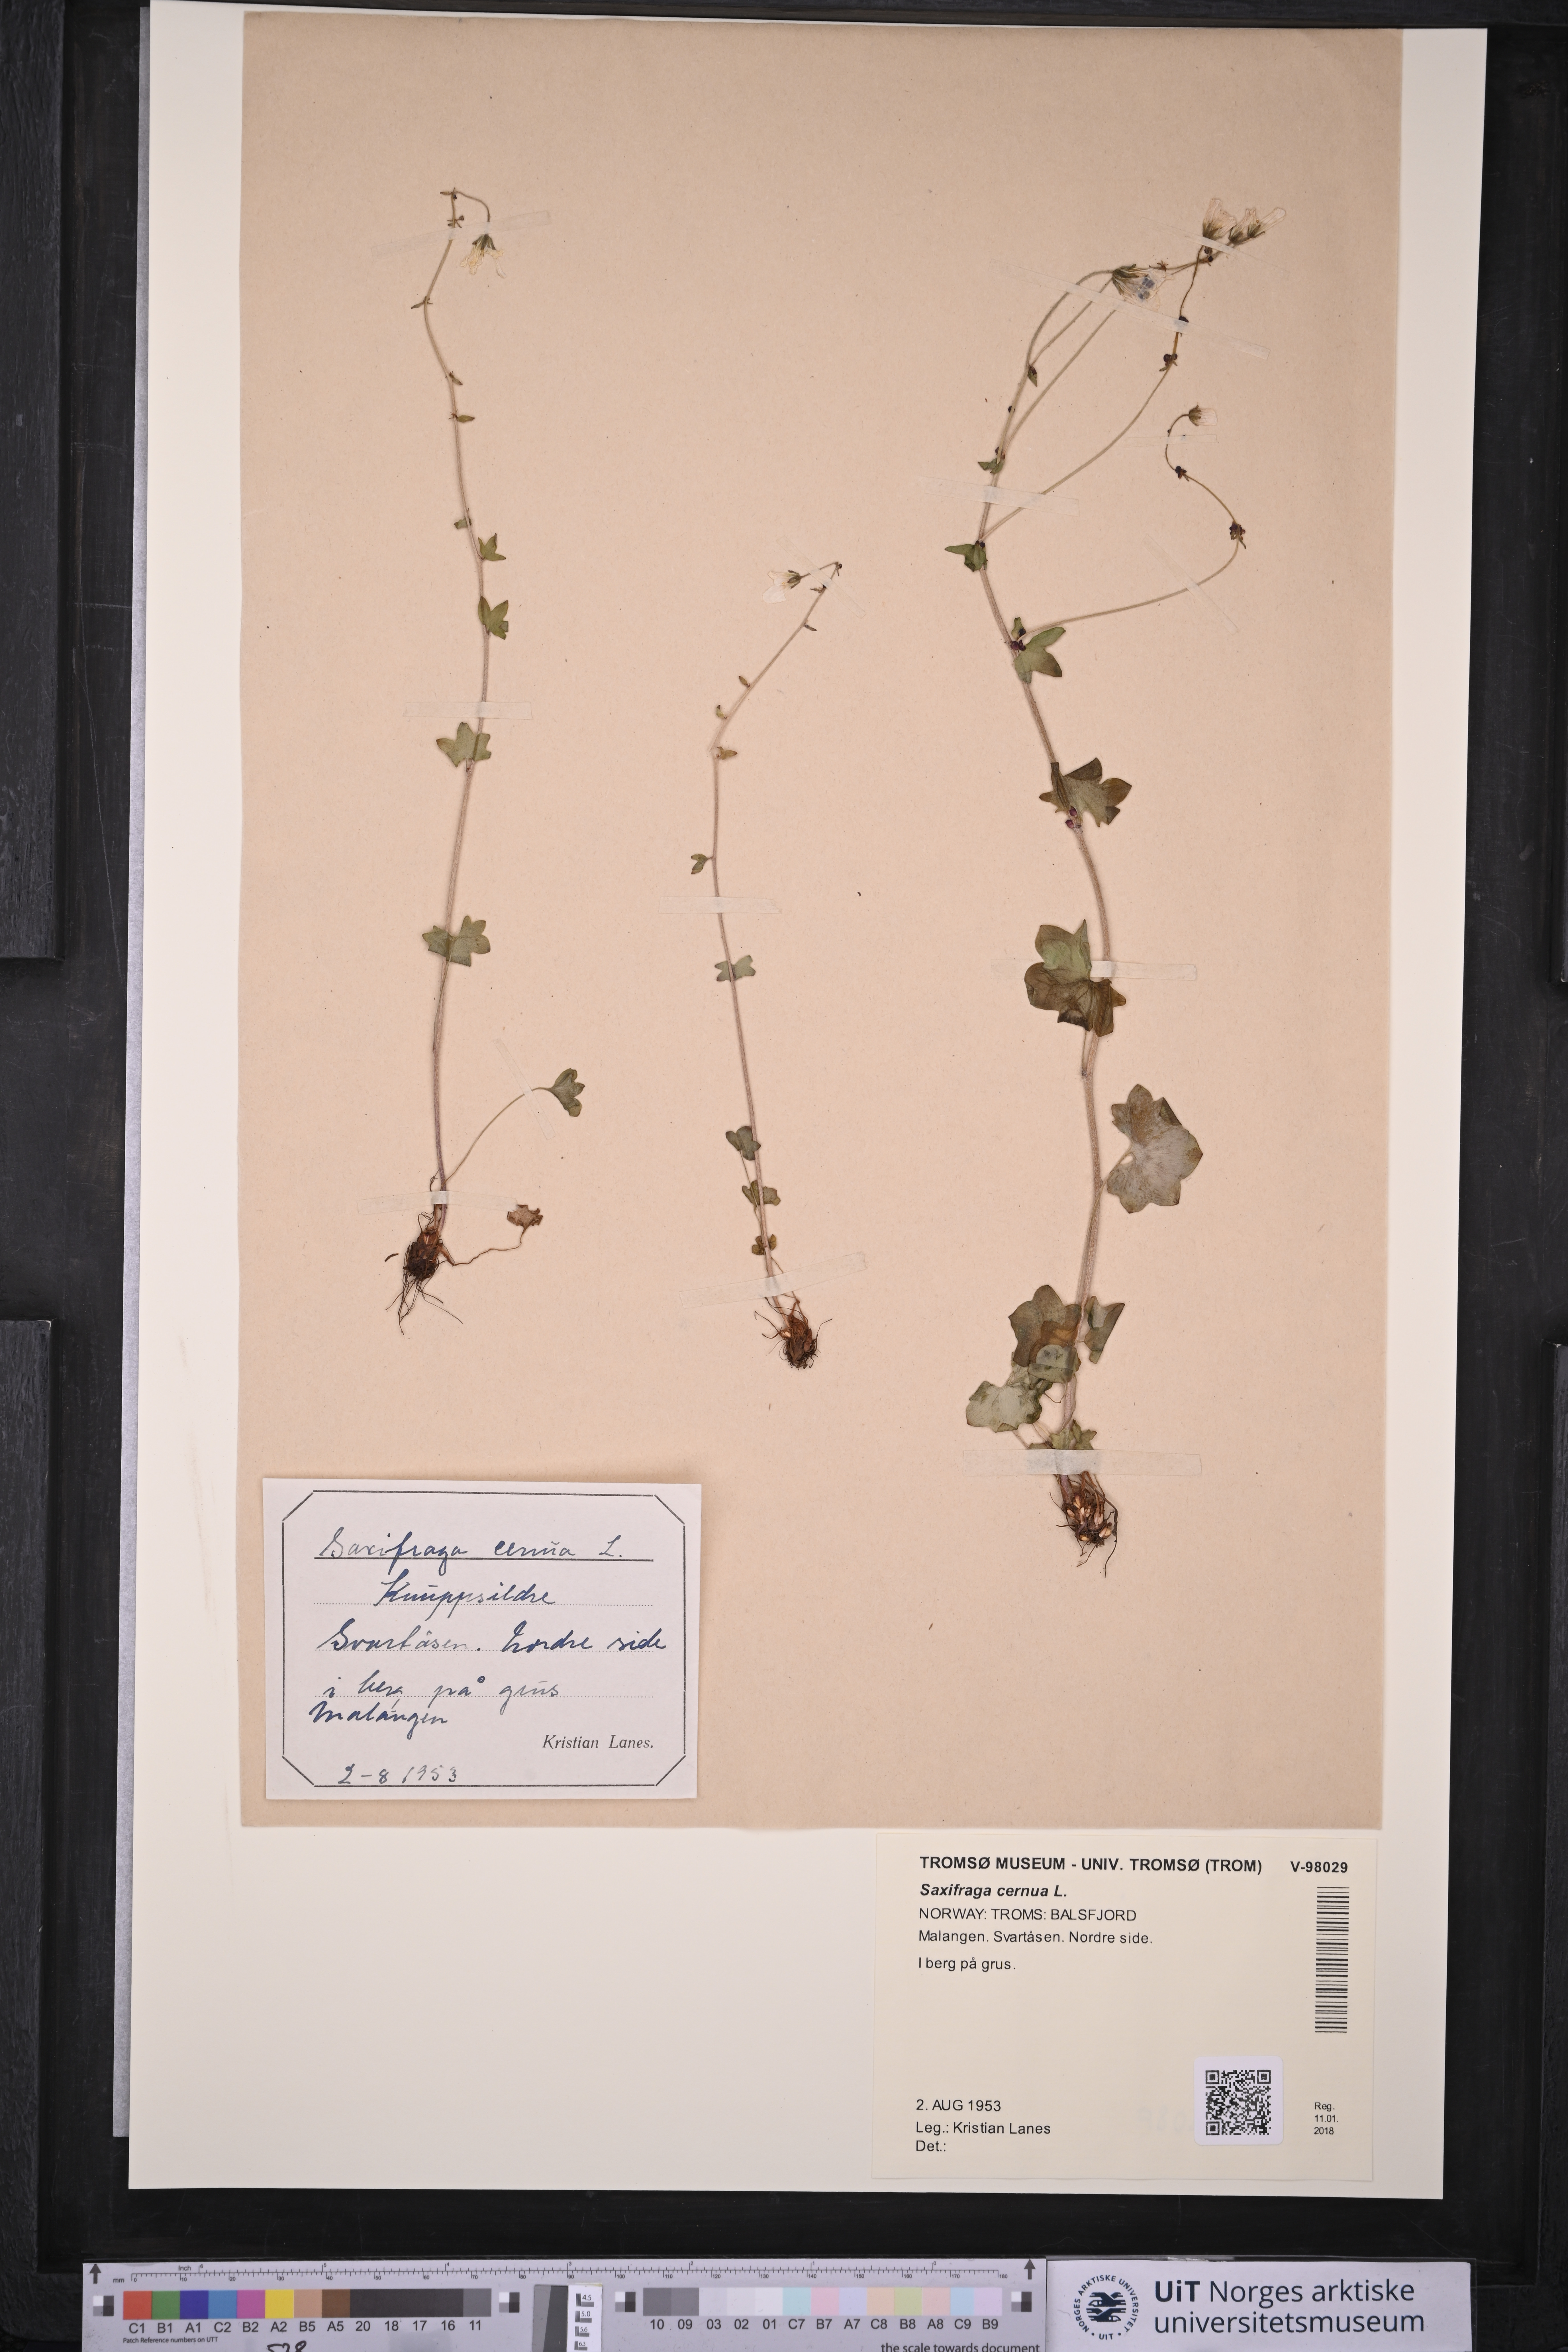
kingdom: Plantae
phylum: Tracheophyta
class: Magnoliopsida
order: Saxifragales
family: Saxifragaceae
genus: Saxifraga
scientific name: Saxifraga cernua
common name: Drooping saxifrage
